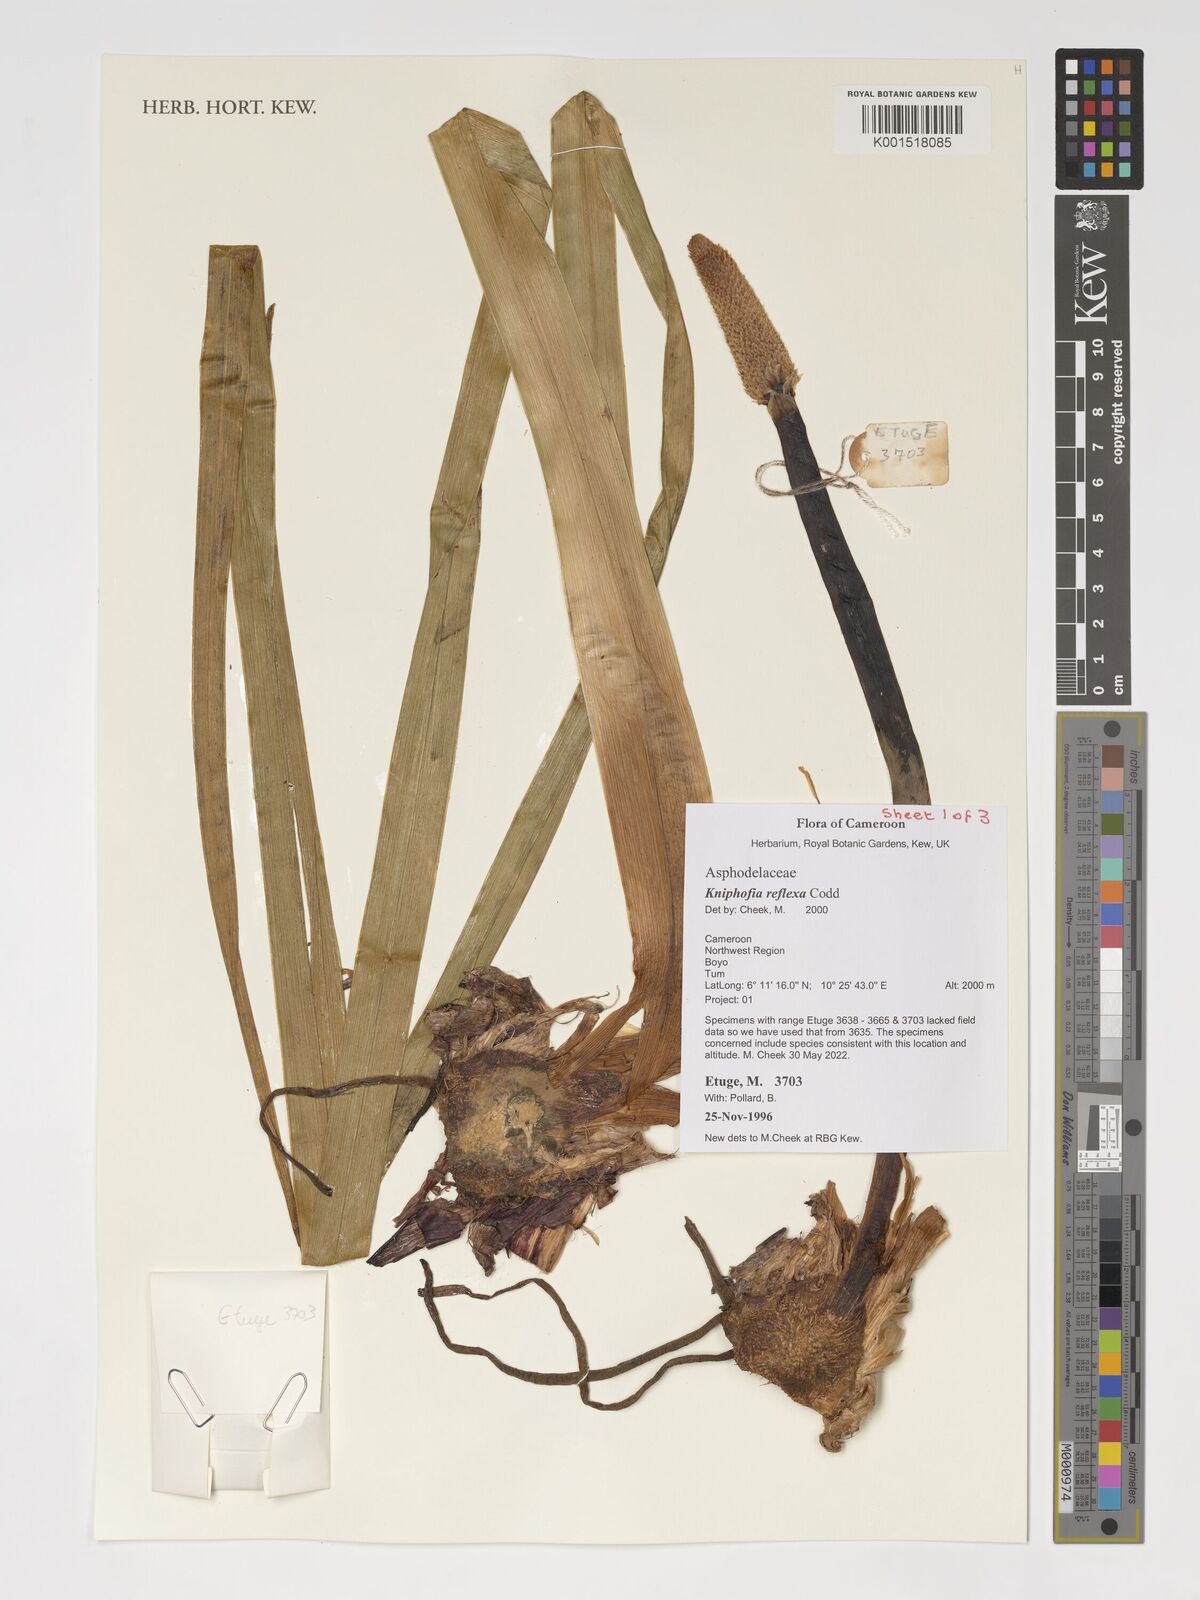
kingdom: Plantae
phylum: Tracheophyta
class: Liliopsida
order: Asparagales
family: Asphodelaceae
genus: Kniphofia
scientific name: Kniphofia reflexa
